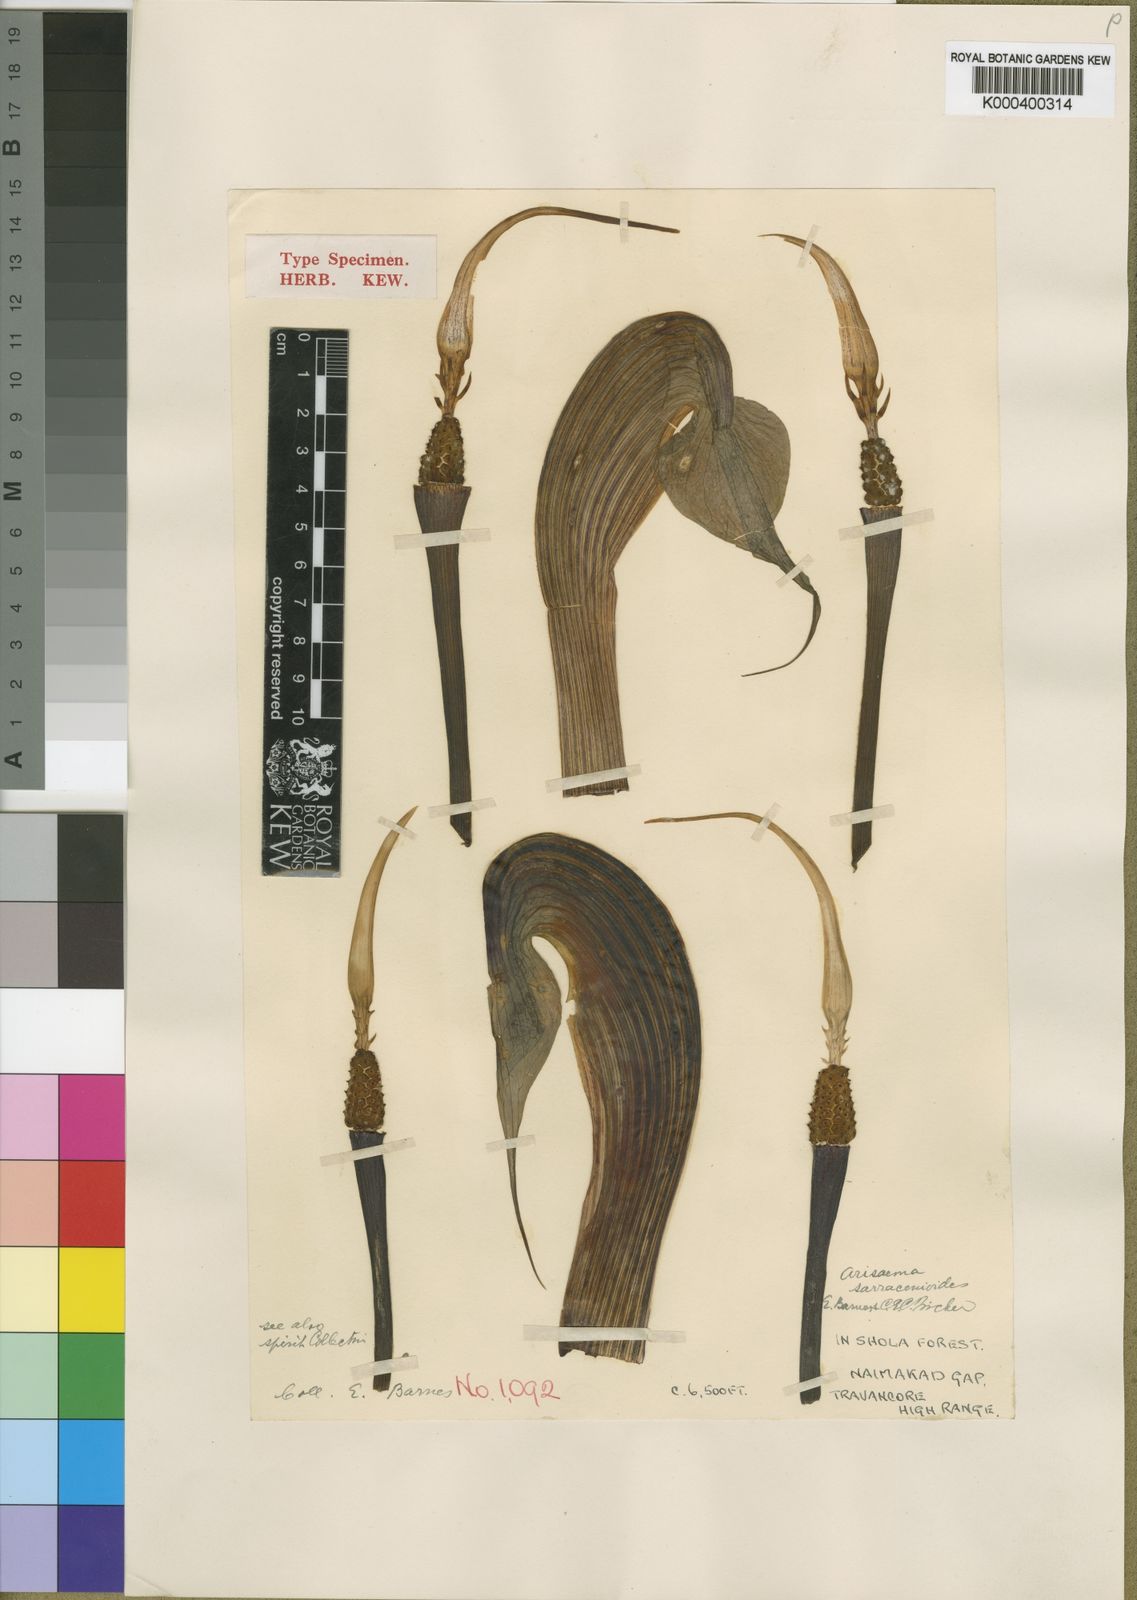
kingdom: Plantae
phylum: Tracheophyta
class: Liliopsida
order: Alismatales
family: Araceae
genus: Arisaema
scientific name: Arisaema sarracenioides
